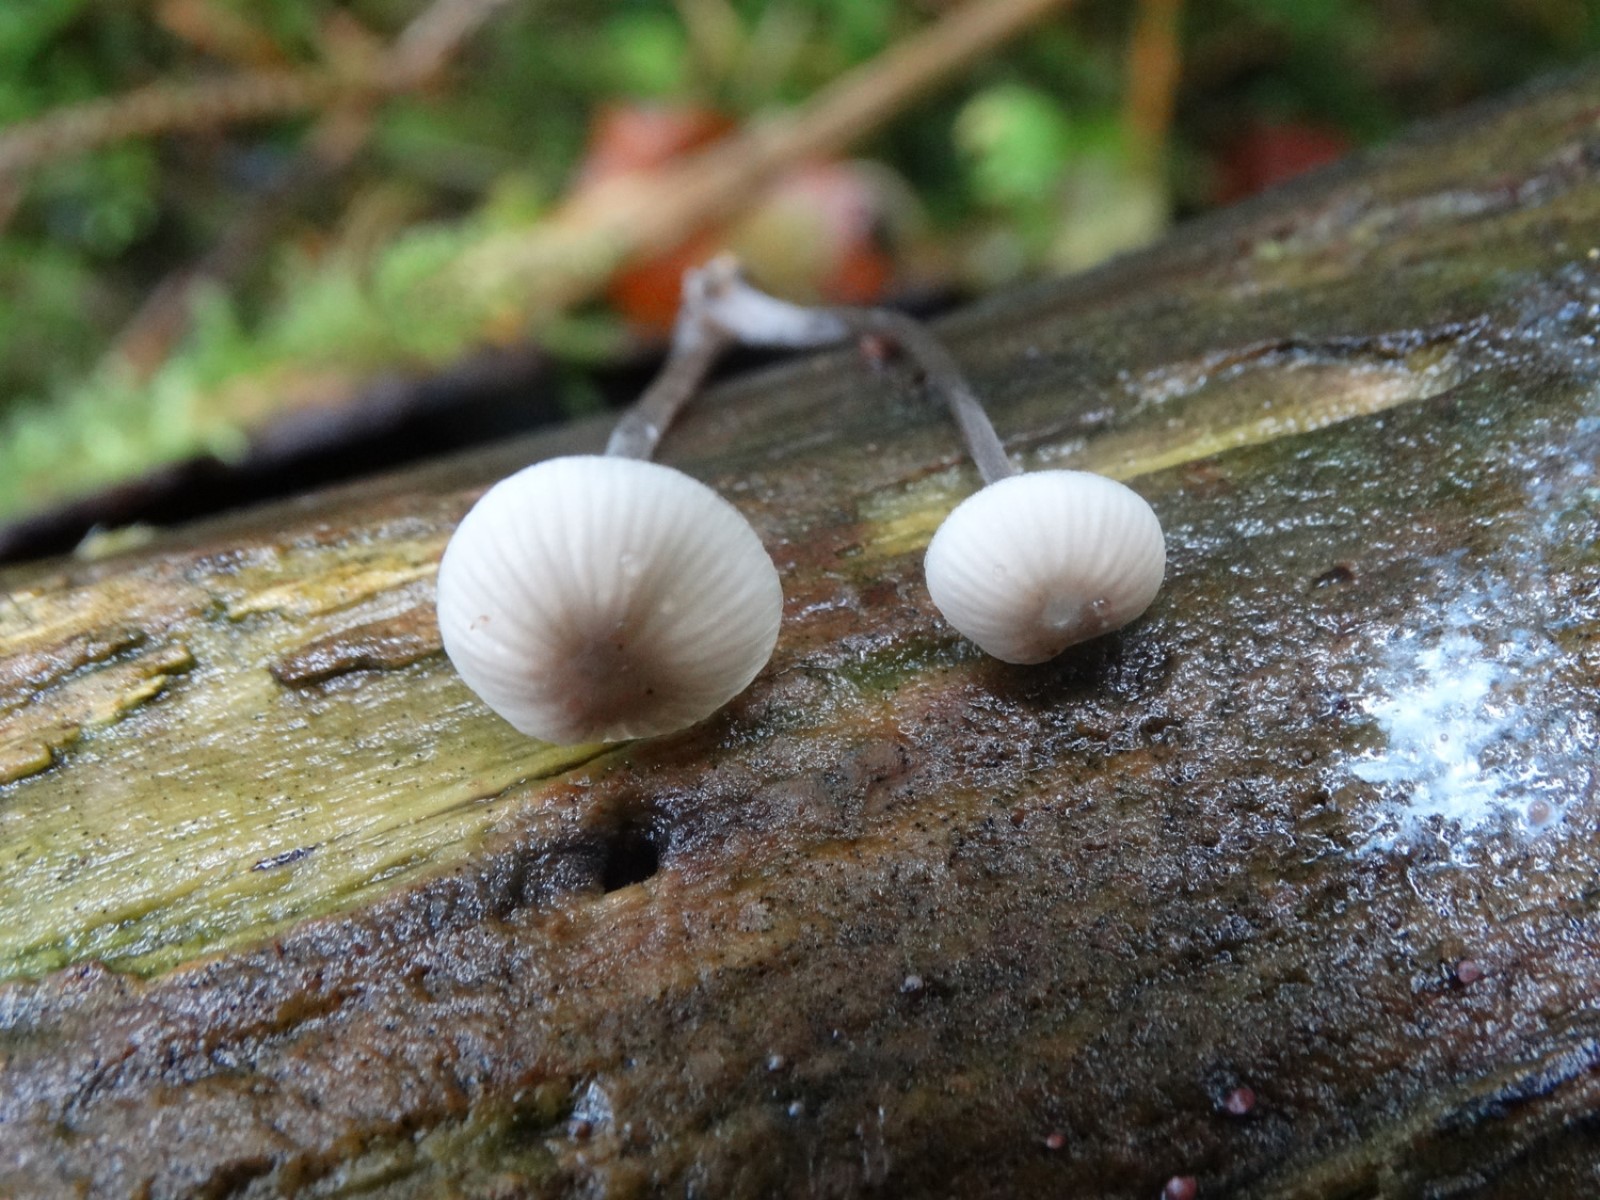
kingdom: Fungi
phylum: Basidiomycota
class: Agaricomycetes
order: Agaricales
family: Mycenaceae
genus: Mycena
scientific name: Mycena galopus
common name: hvidmælket huesvamp
